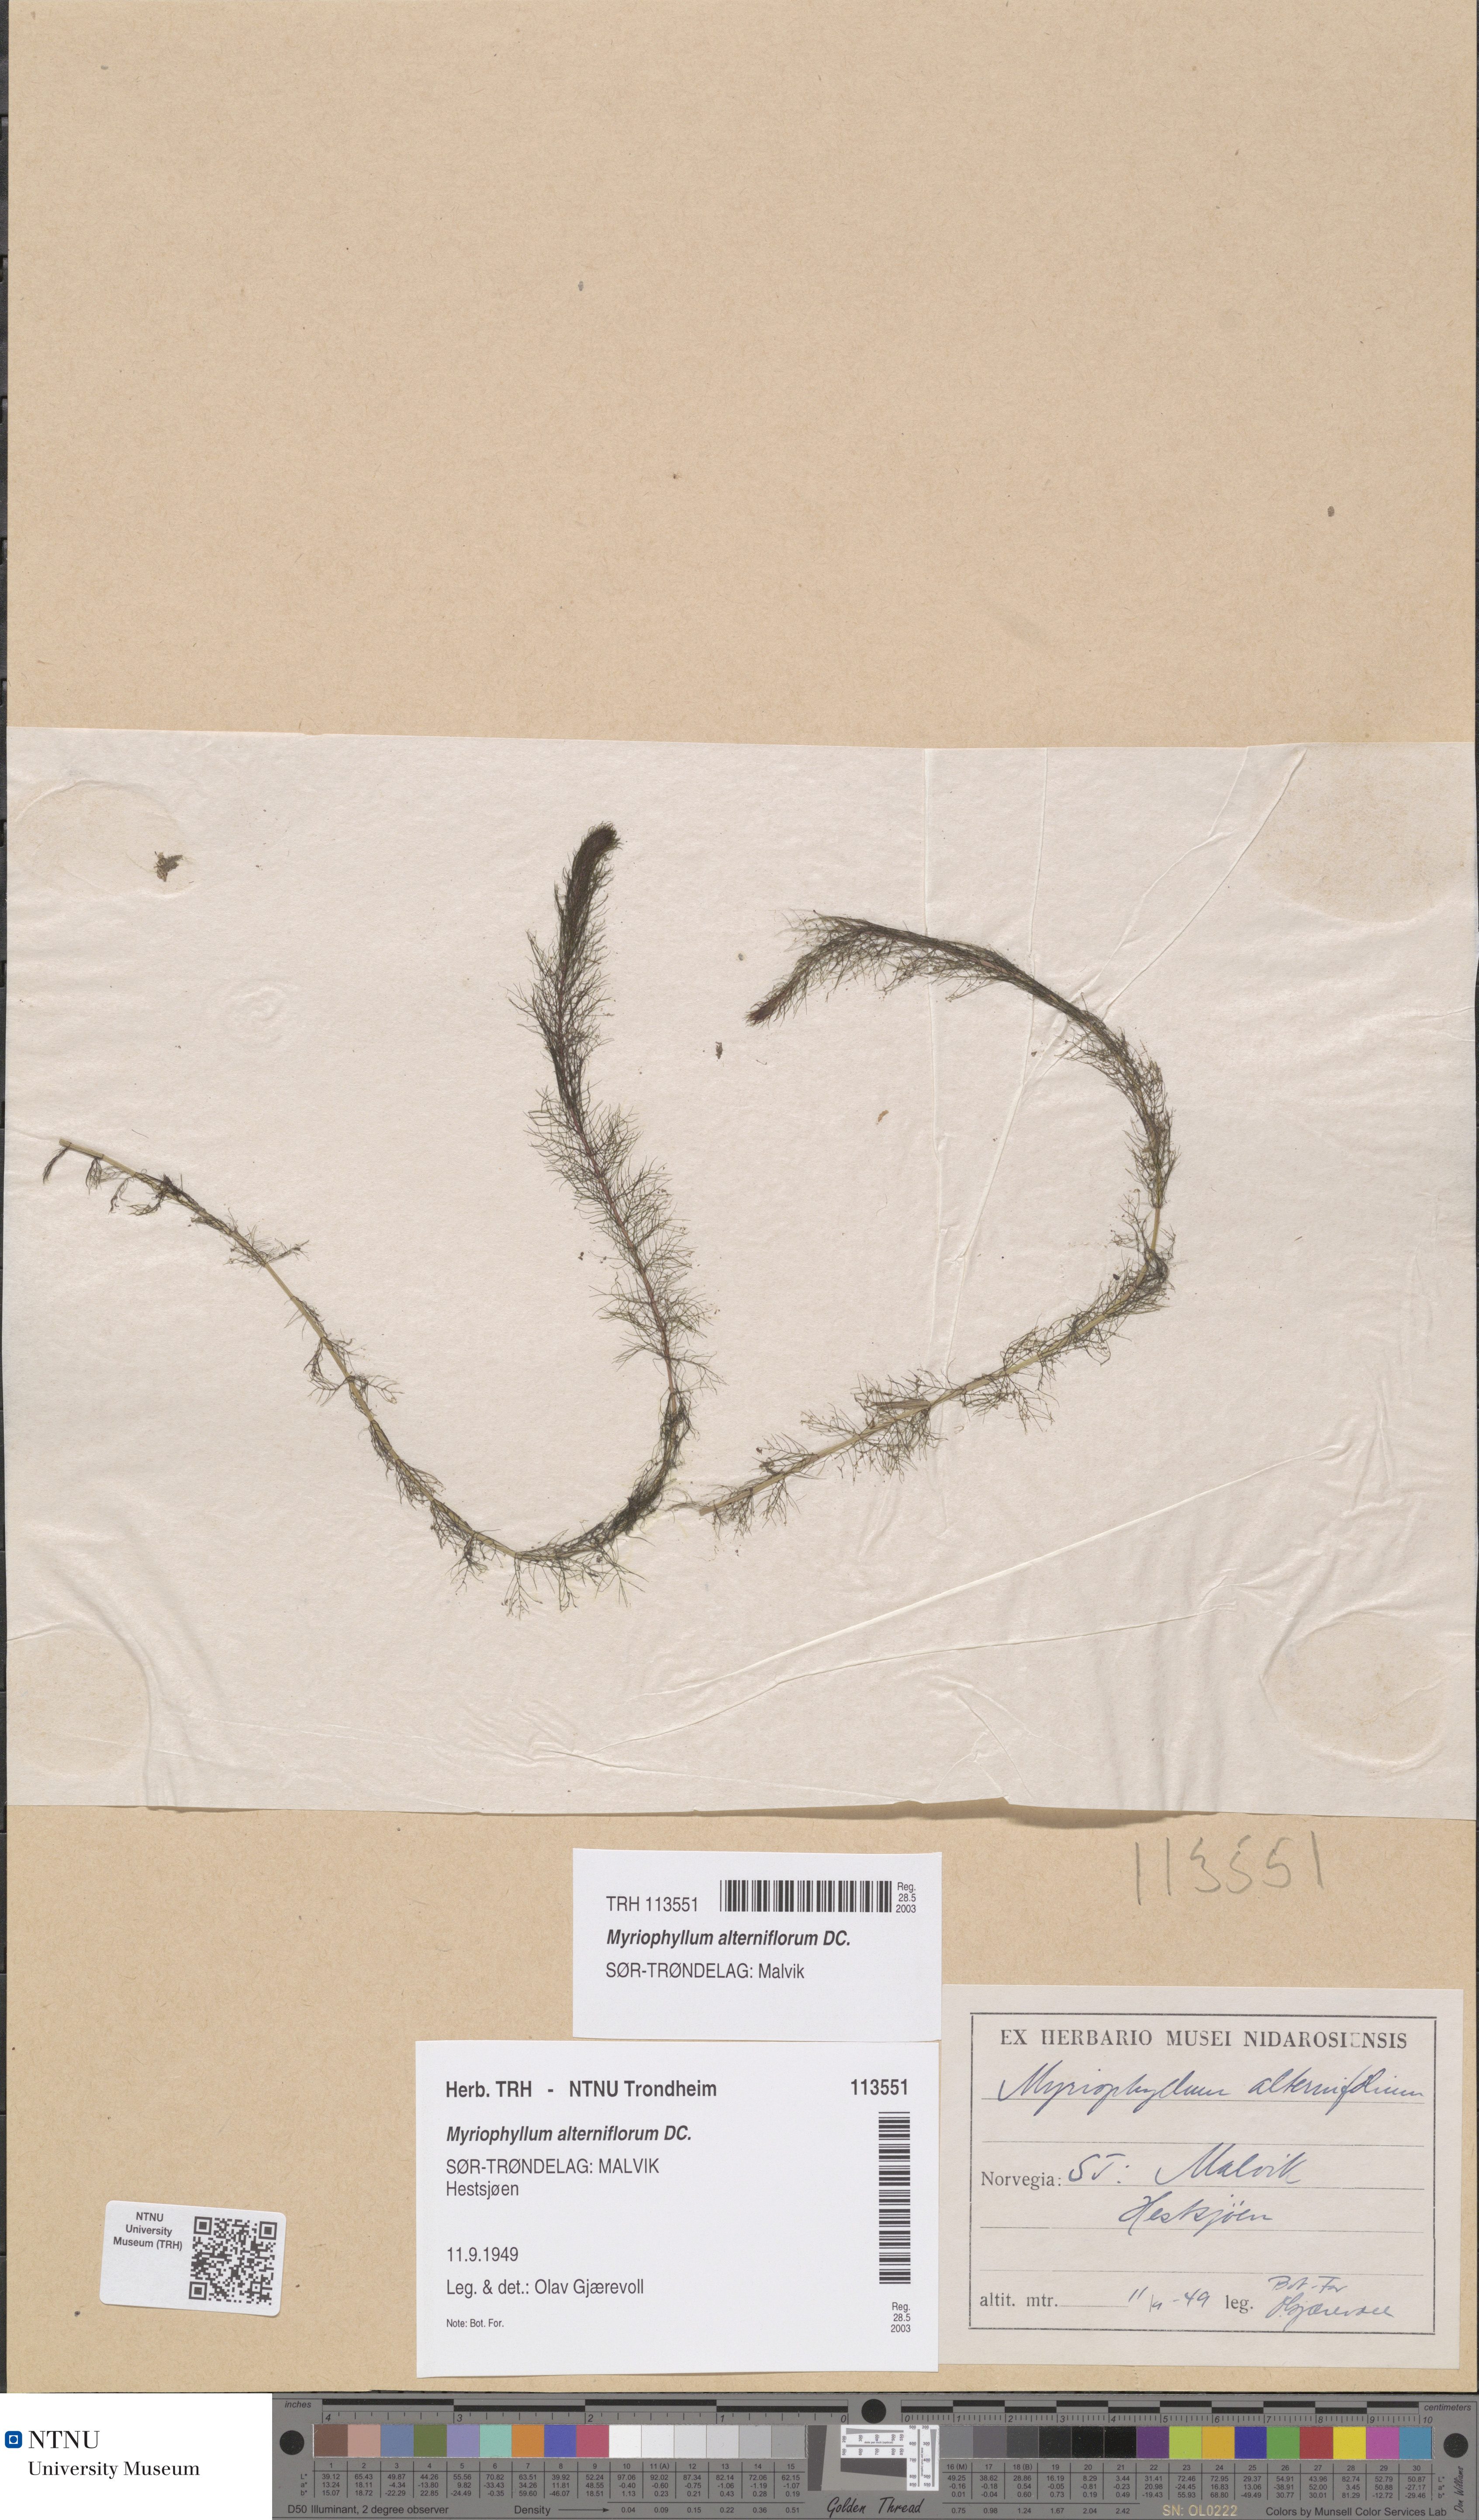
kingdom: Plantae
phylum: Tracheophyta
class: Magnoliopsida
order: Saxifragales
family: Haloragaceae
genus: Myriophyllum
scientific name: Myriophyllum alterniflorum
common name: Alternate water-milfoil
